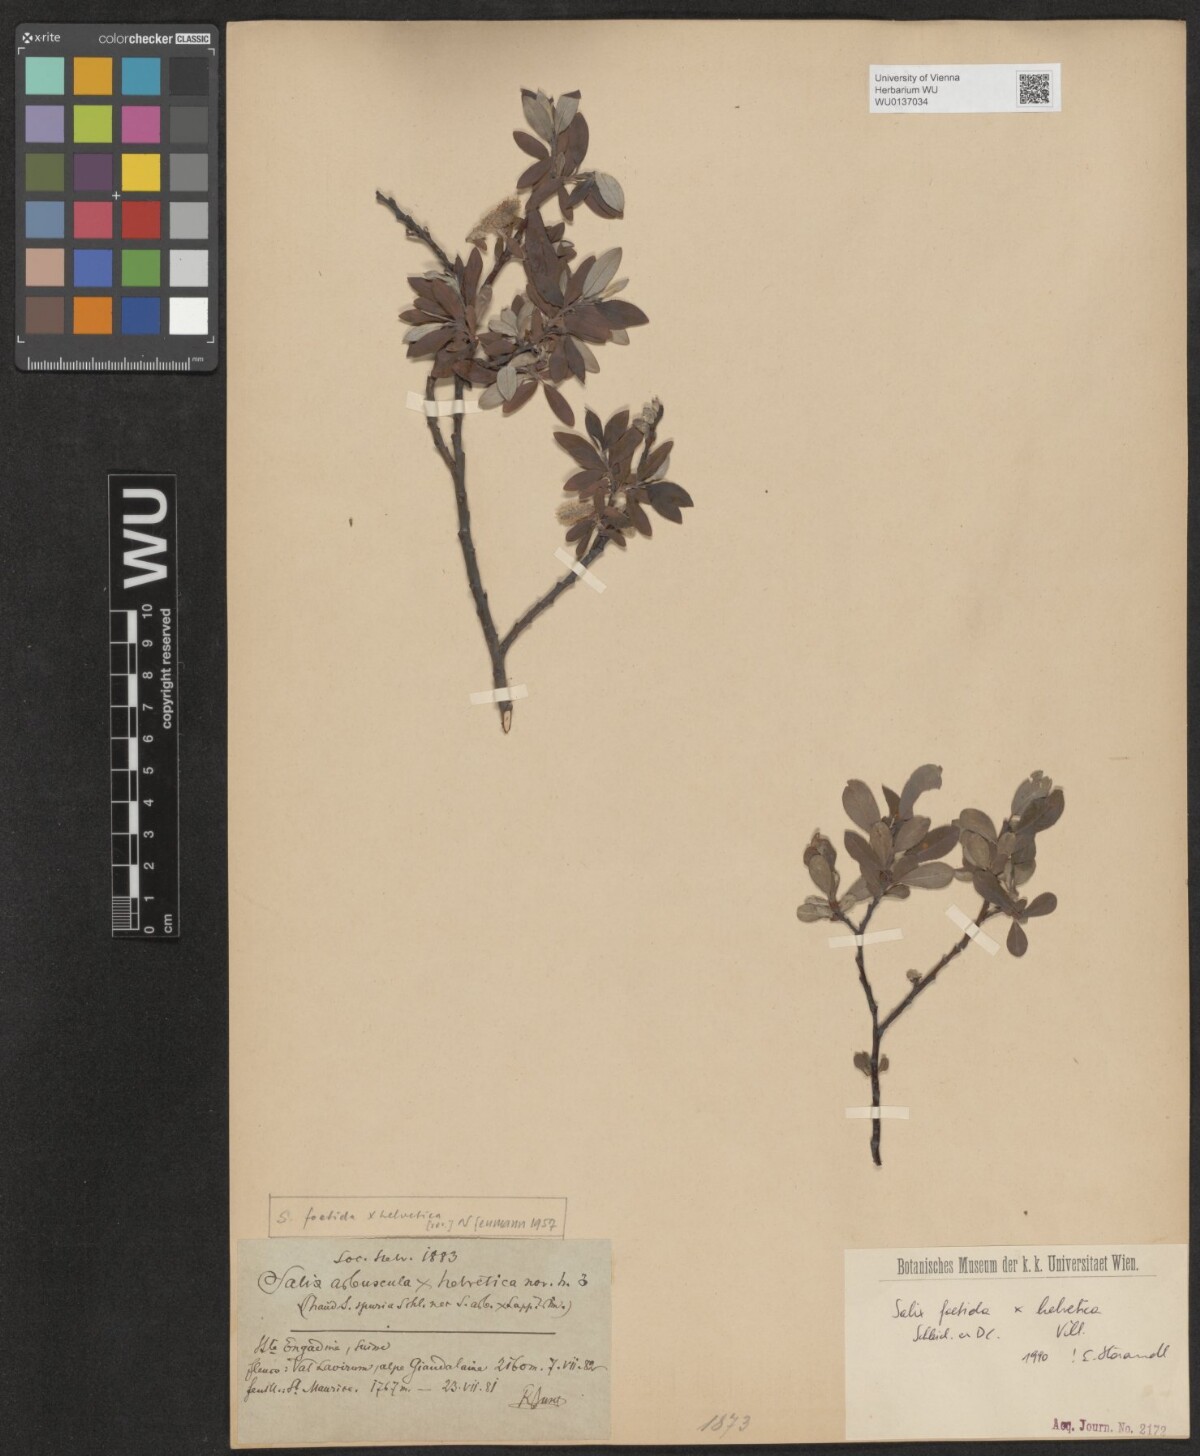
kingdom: Plantae
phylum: Tracheophyta
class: Magnoliopsida
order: Malpighiales
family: Salicaceae
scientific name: Salicaceae
